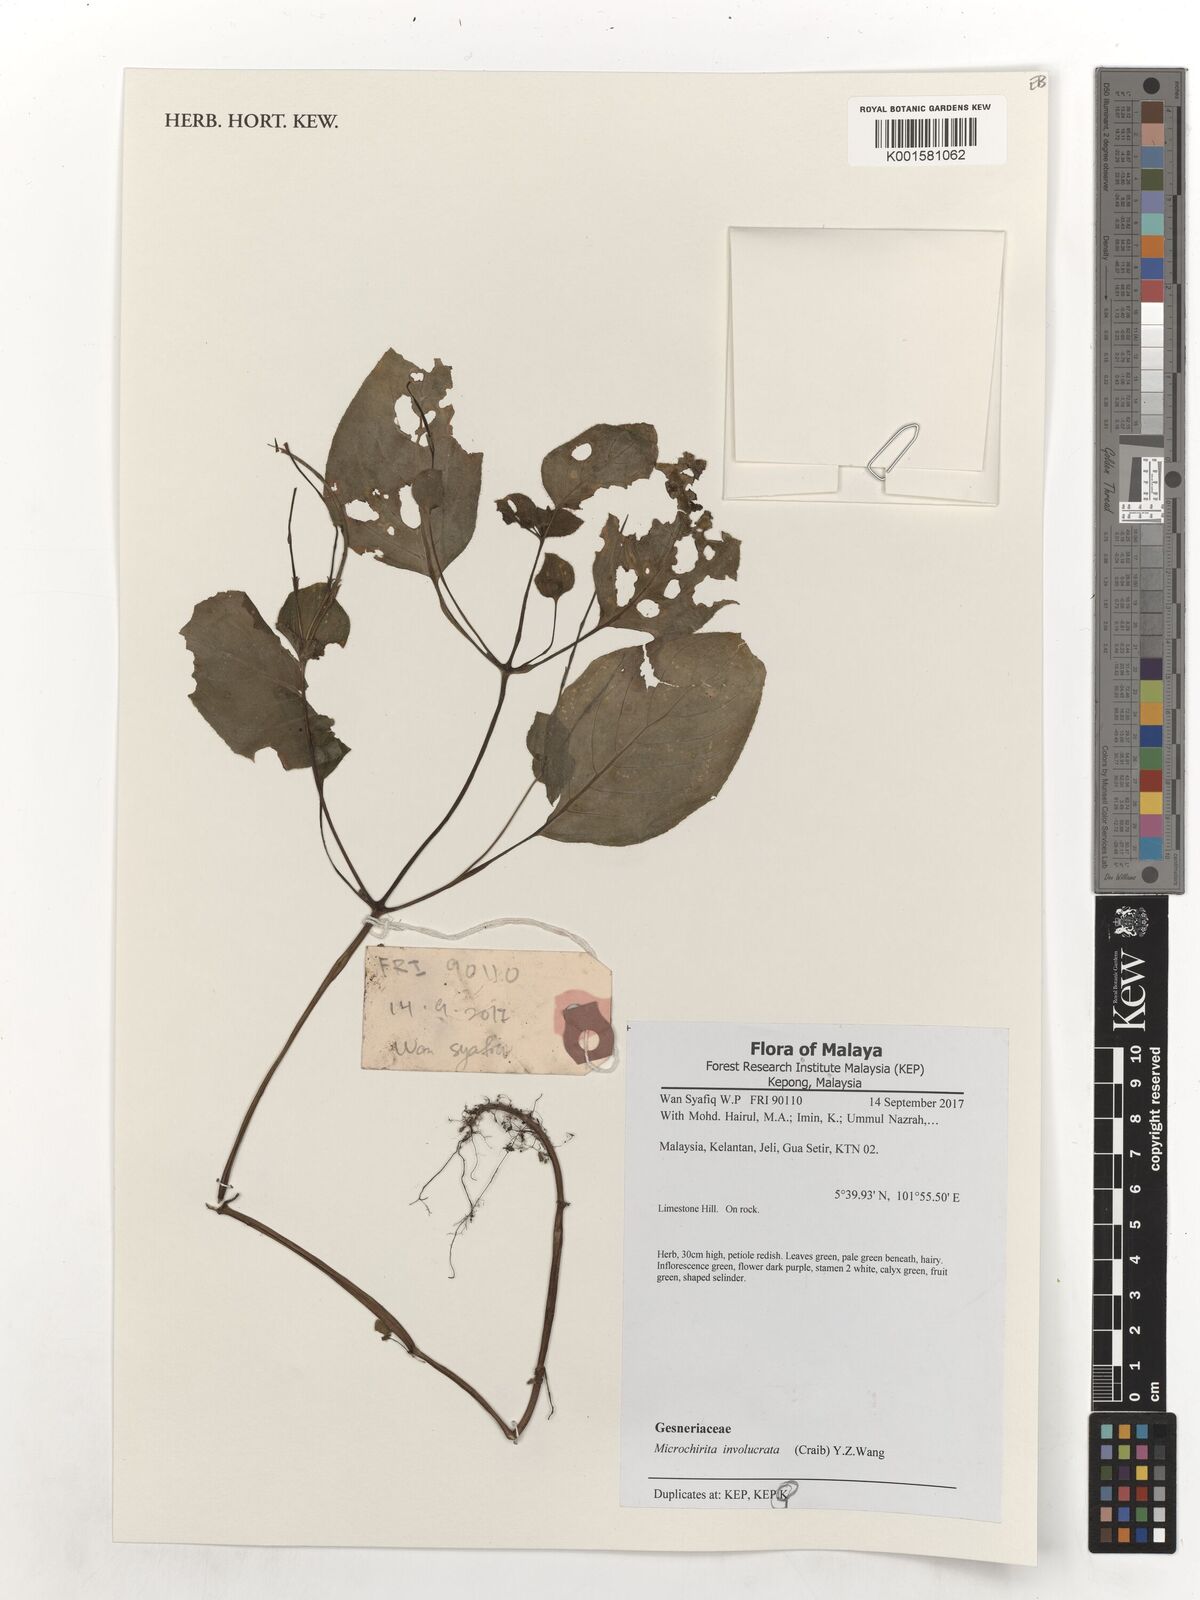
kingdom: Plantae
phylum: Tracheophyta
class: Magnoliopsida
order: Lamiales
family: Gesneriaceae
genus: Microchirita
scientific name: Microchirita involucrata
